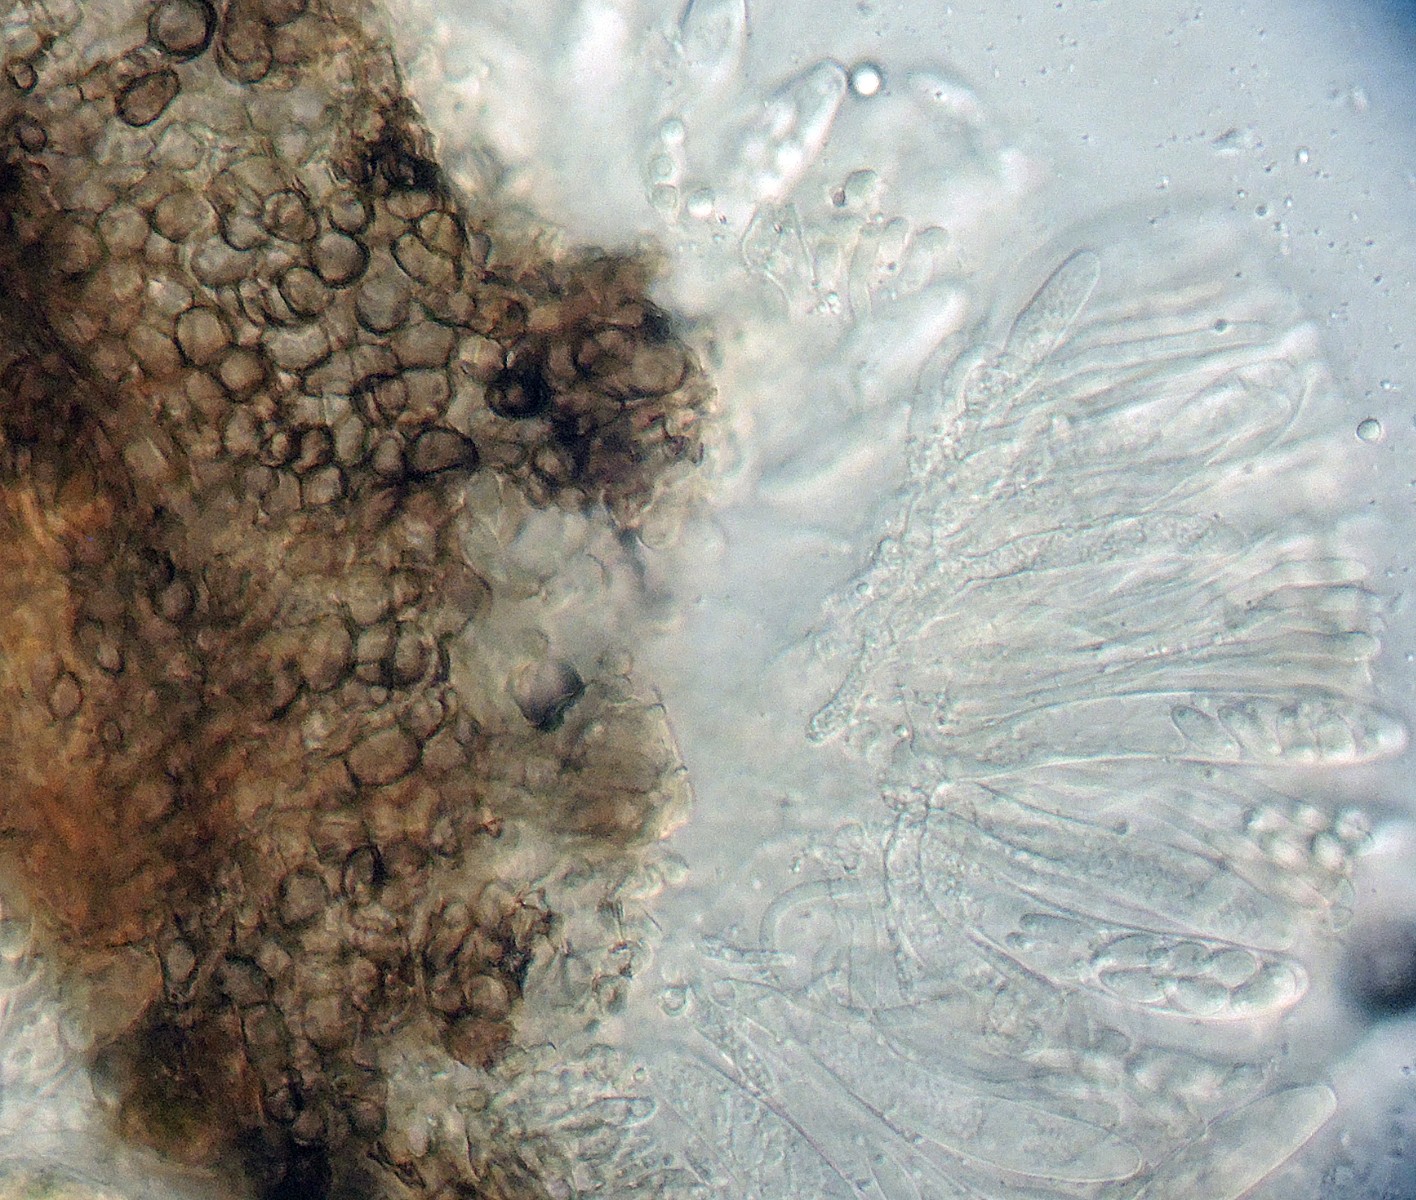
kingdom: Fungi
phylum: Ascomycota
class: Leotiomycetes
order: Helotiales
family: Drepanopezizaceae
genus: Leptotrochila
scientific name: Leptotrochila trifolii-arvensis
